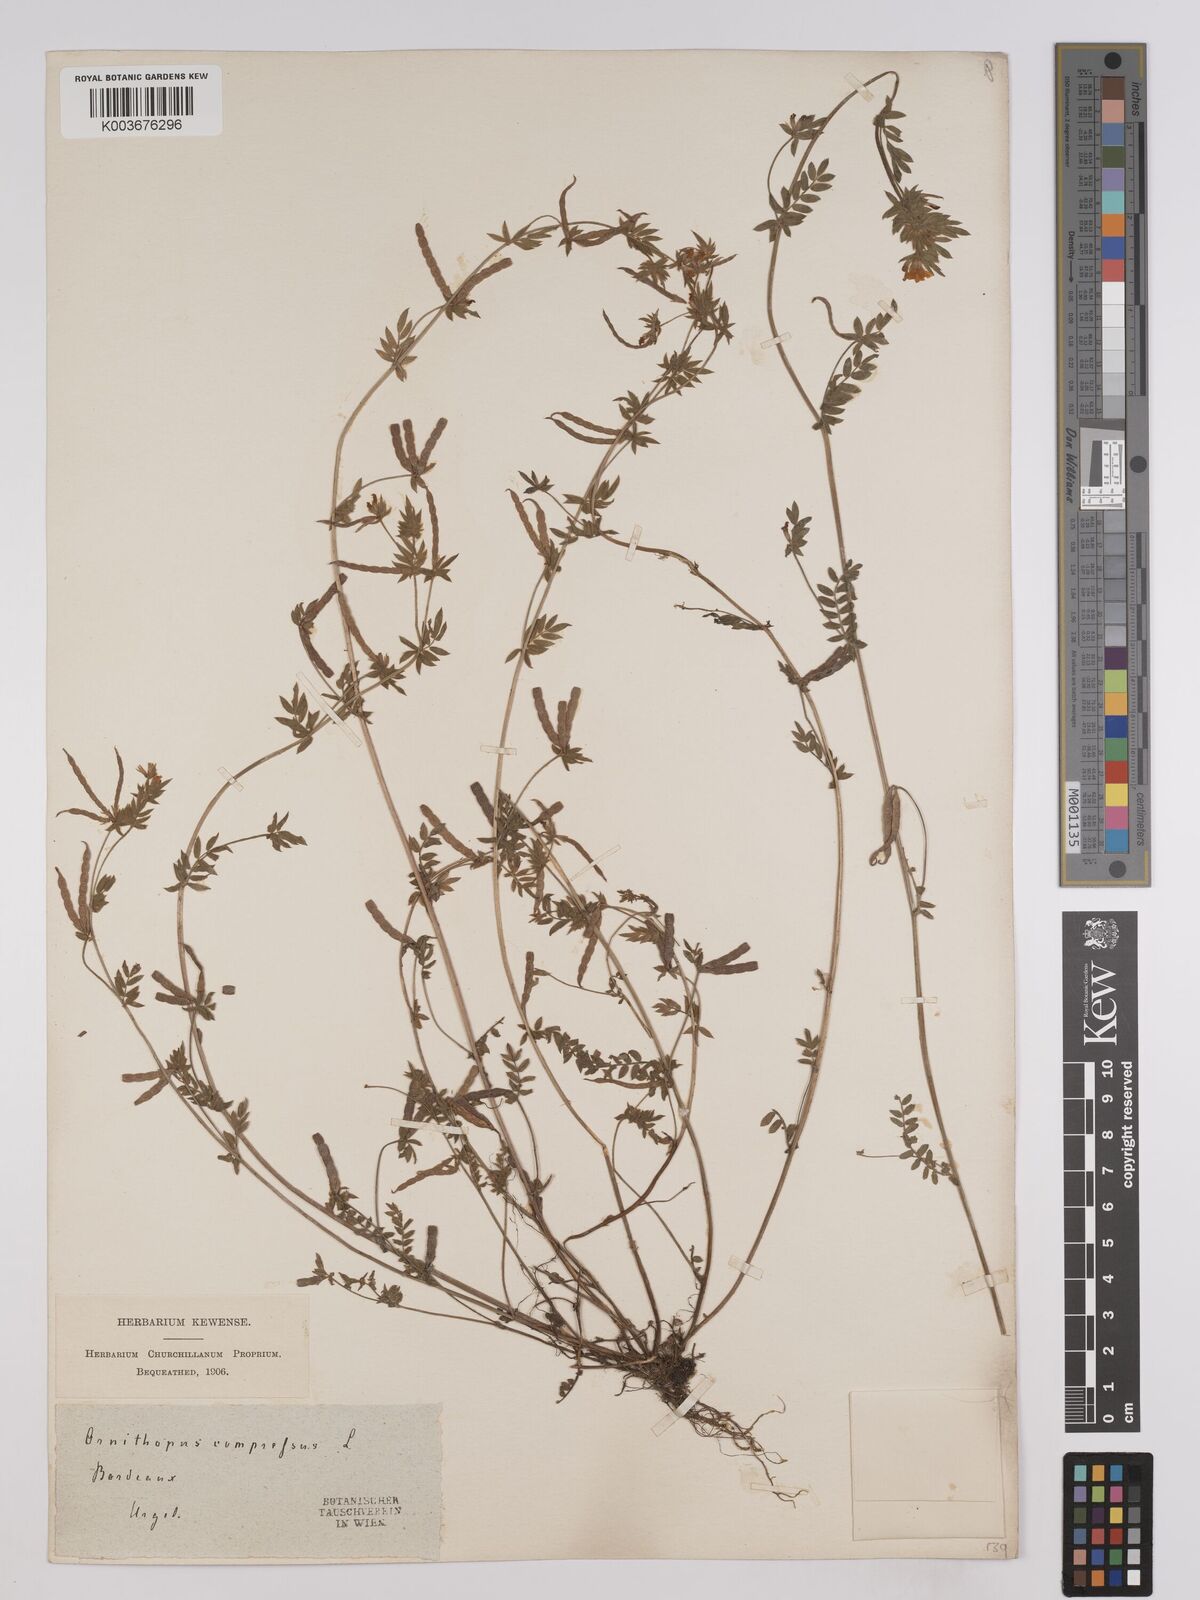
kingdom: Plantae
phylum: Tracheophyta
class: Magnoliopsida
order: Fabales
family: Fabaceae
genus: Ornithopus
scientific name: Ornithopus compressus
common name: Yellow serradella
